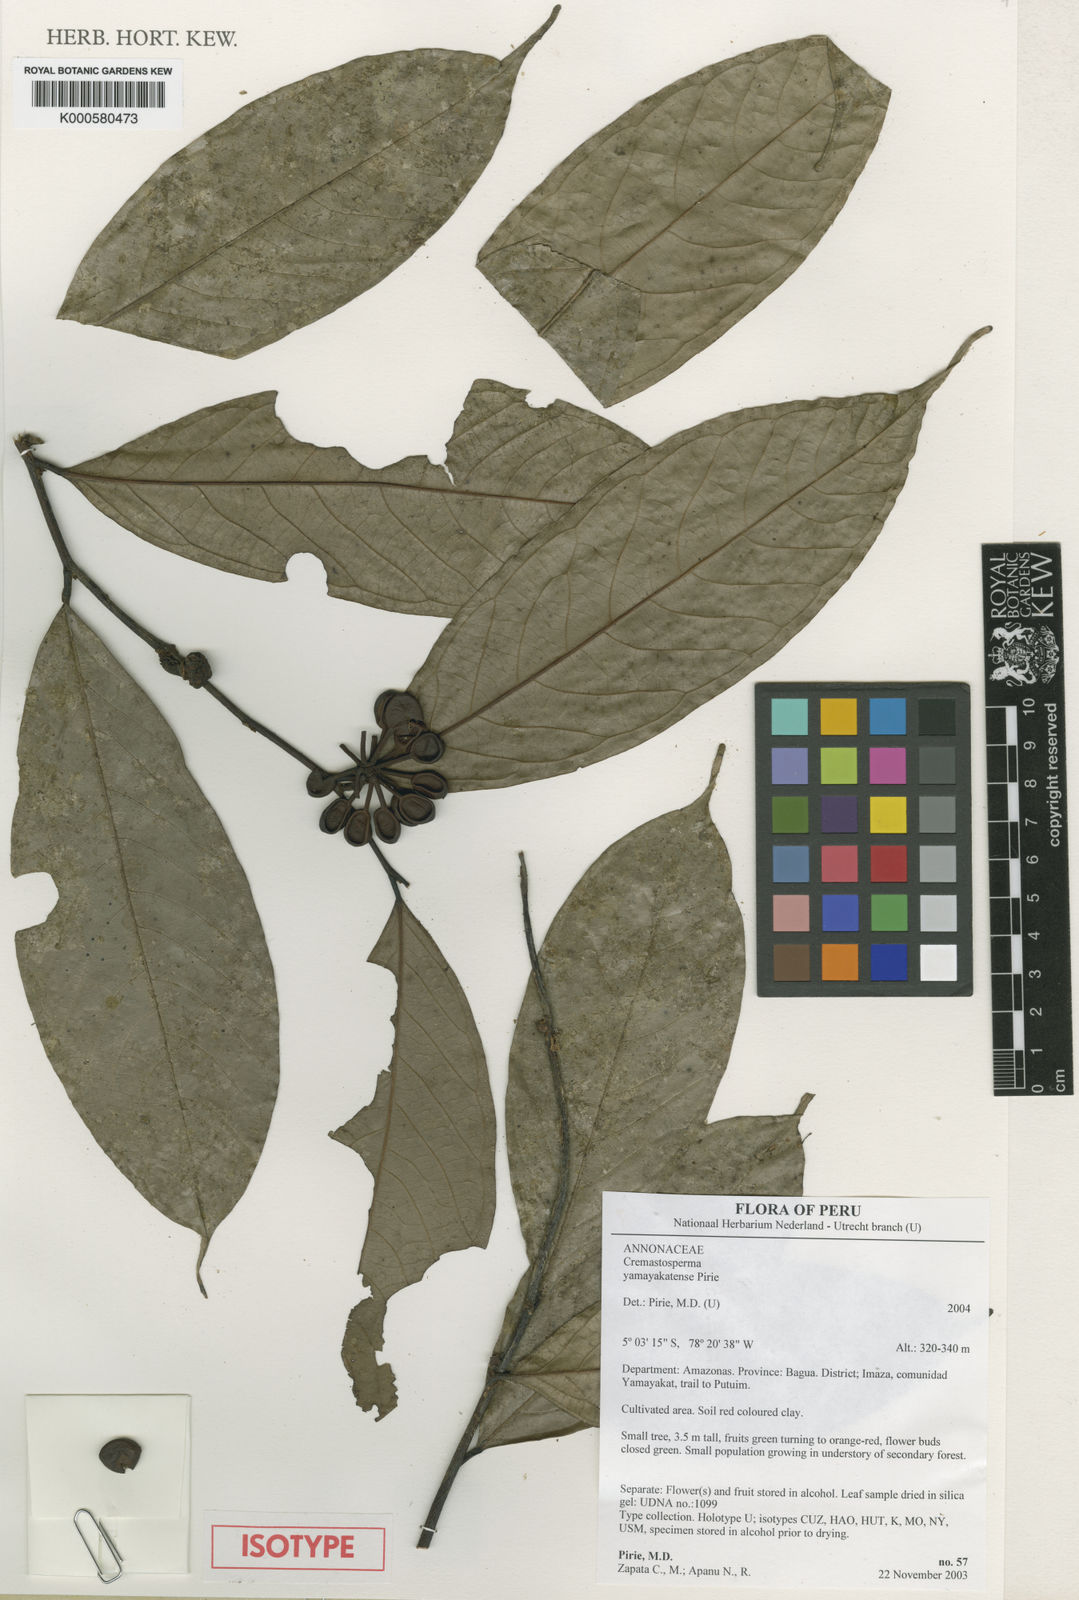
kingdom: Plantae
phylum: Tracheophyta
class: Magnoliopsida
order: Magnoliales
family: Annonaceae
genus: Cremastosperma
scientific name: Cremastosperma yamayakatense
